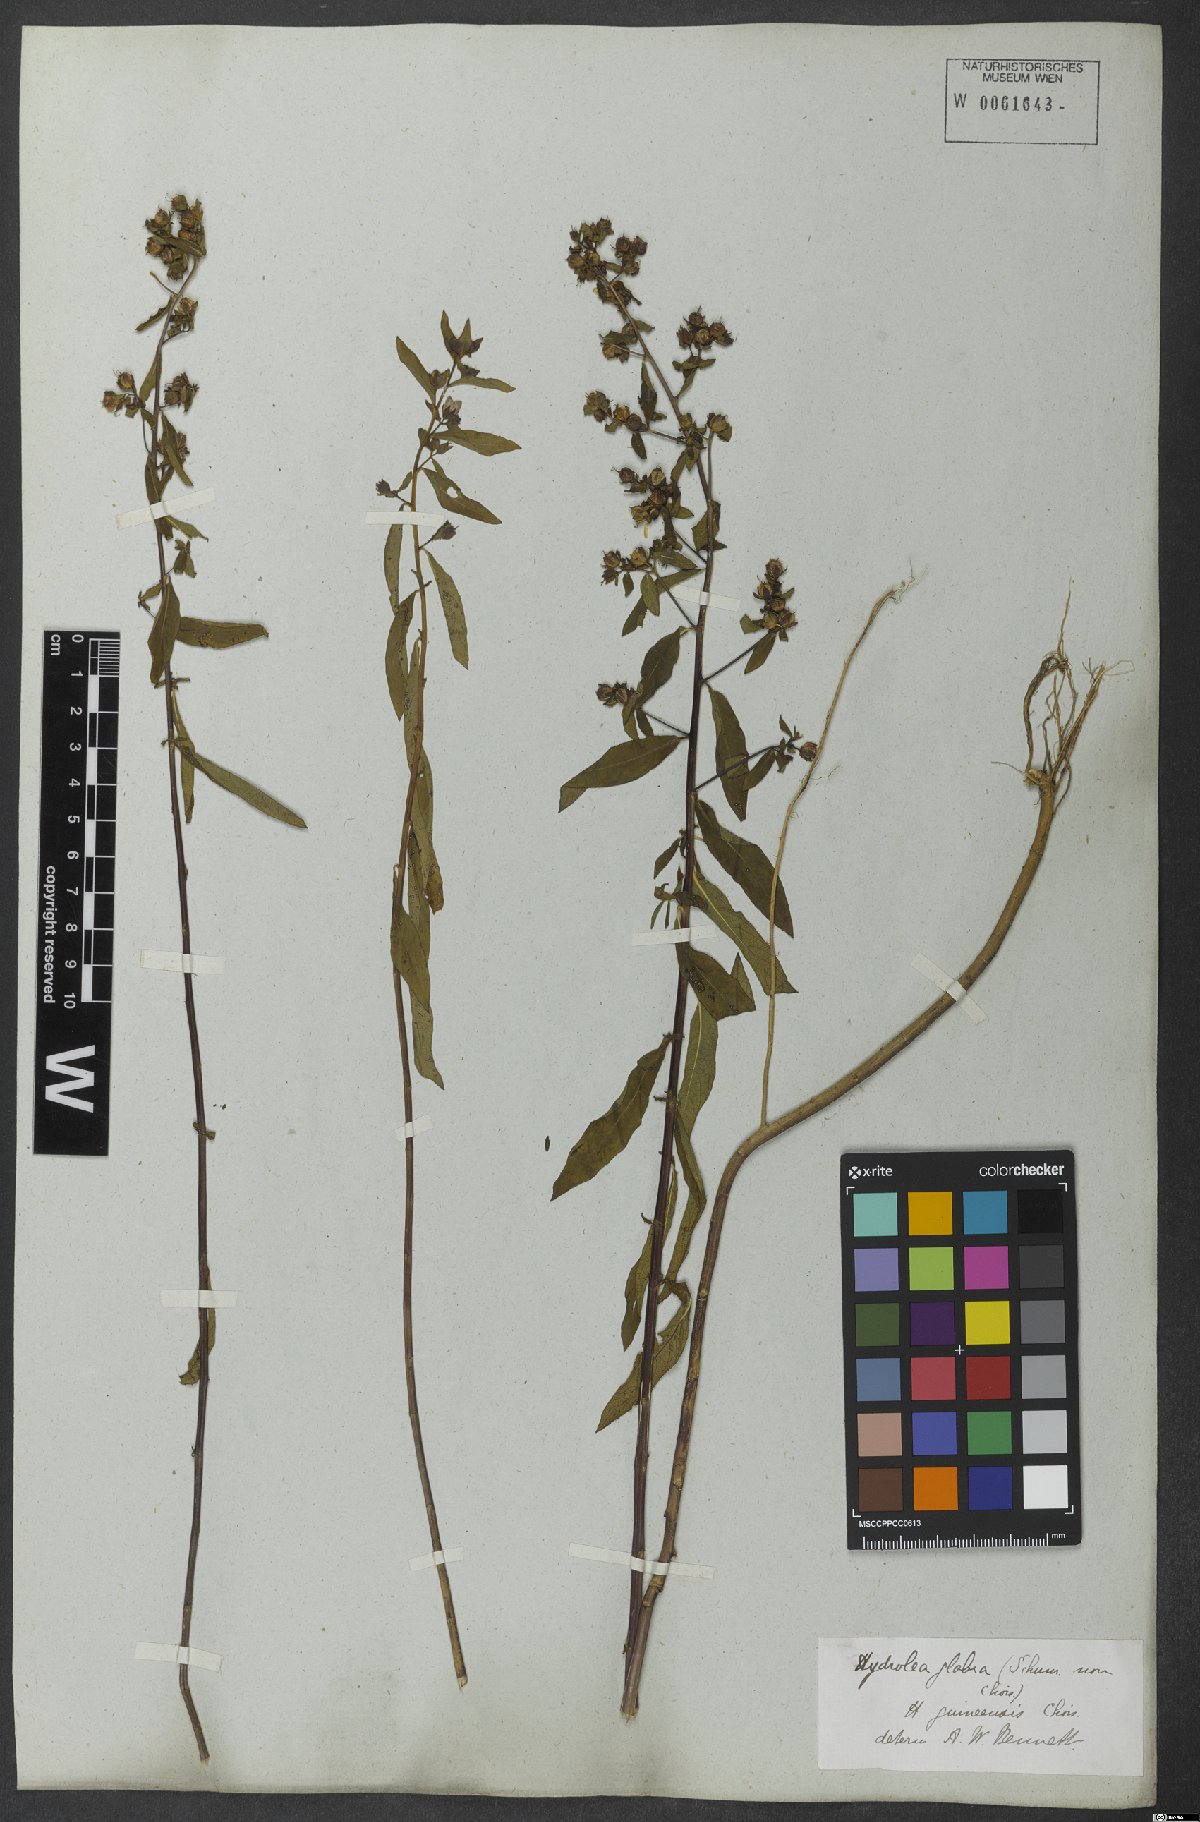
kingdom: Plantae
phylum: Tracheophyta
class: Magnoliopsida
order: Solanales
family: Hydroleaceae
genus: Hydrolea
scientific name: Hydrolea palustris
